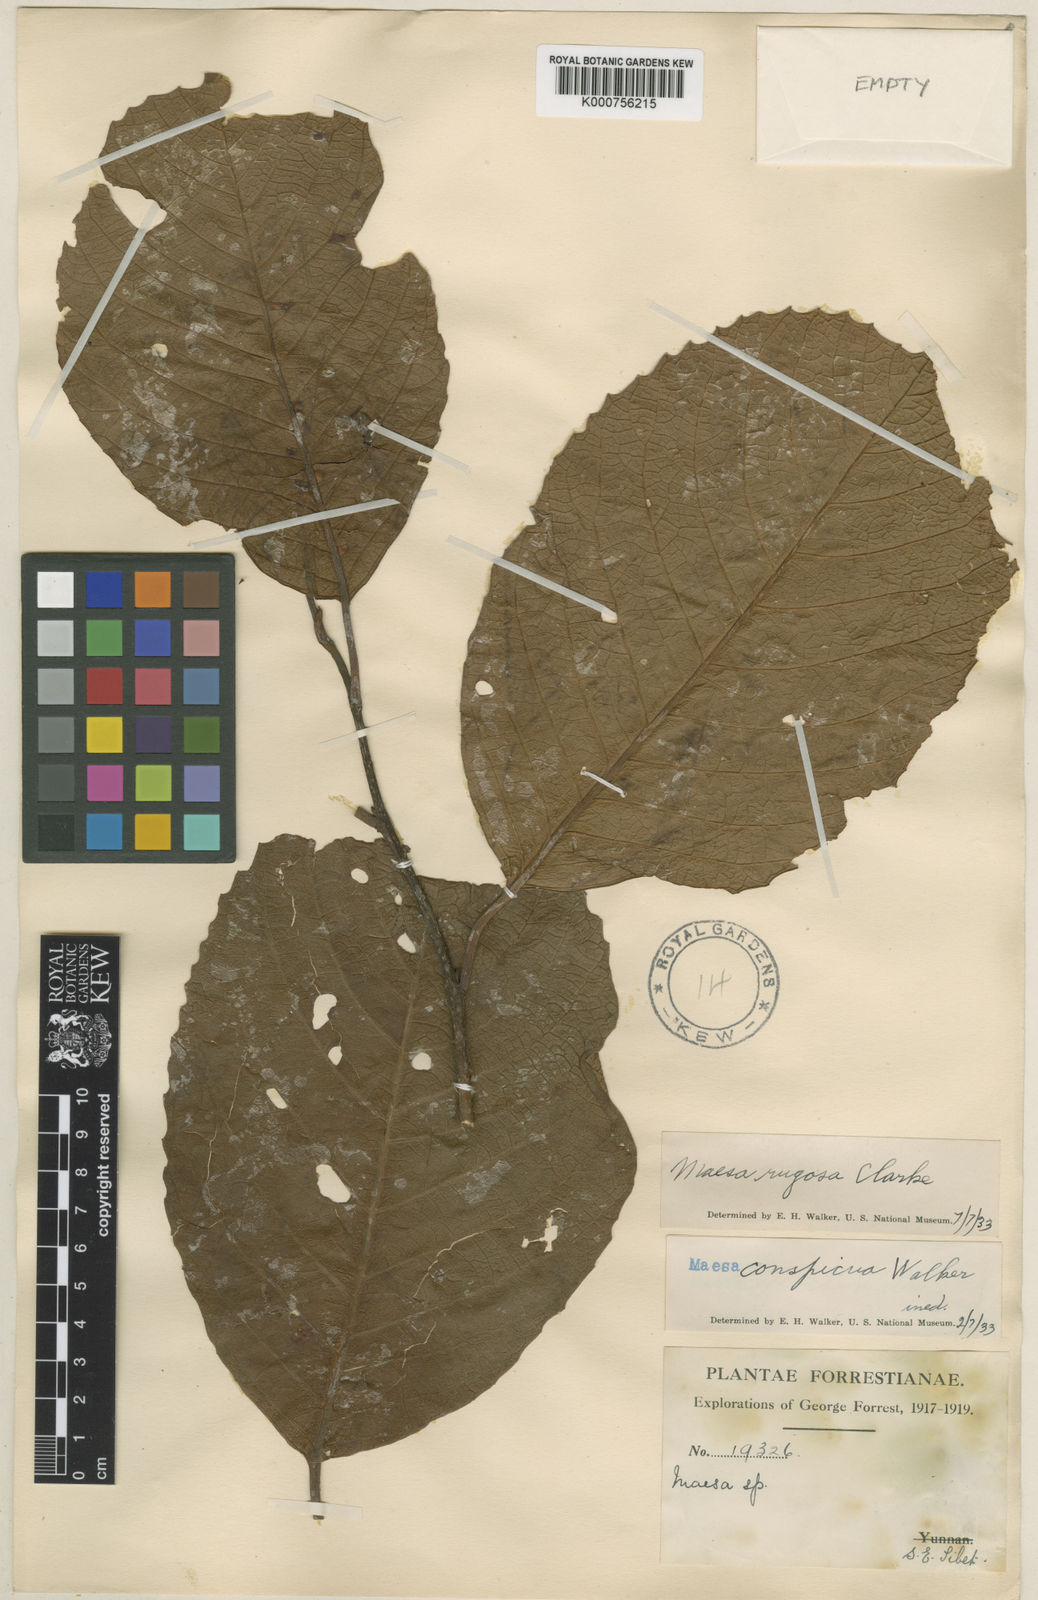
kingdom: Plantae
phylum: Tracheophyta
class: Magnoliopsida
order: Ericales
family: Primulaceae
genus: Maesa
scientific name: Maesa rugosa
